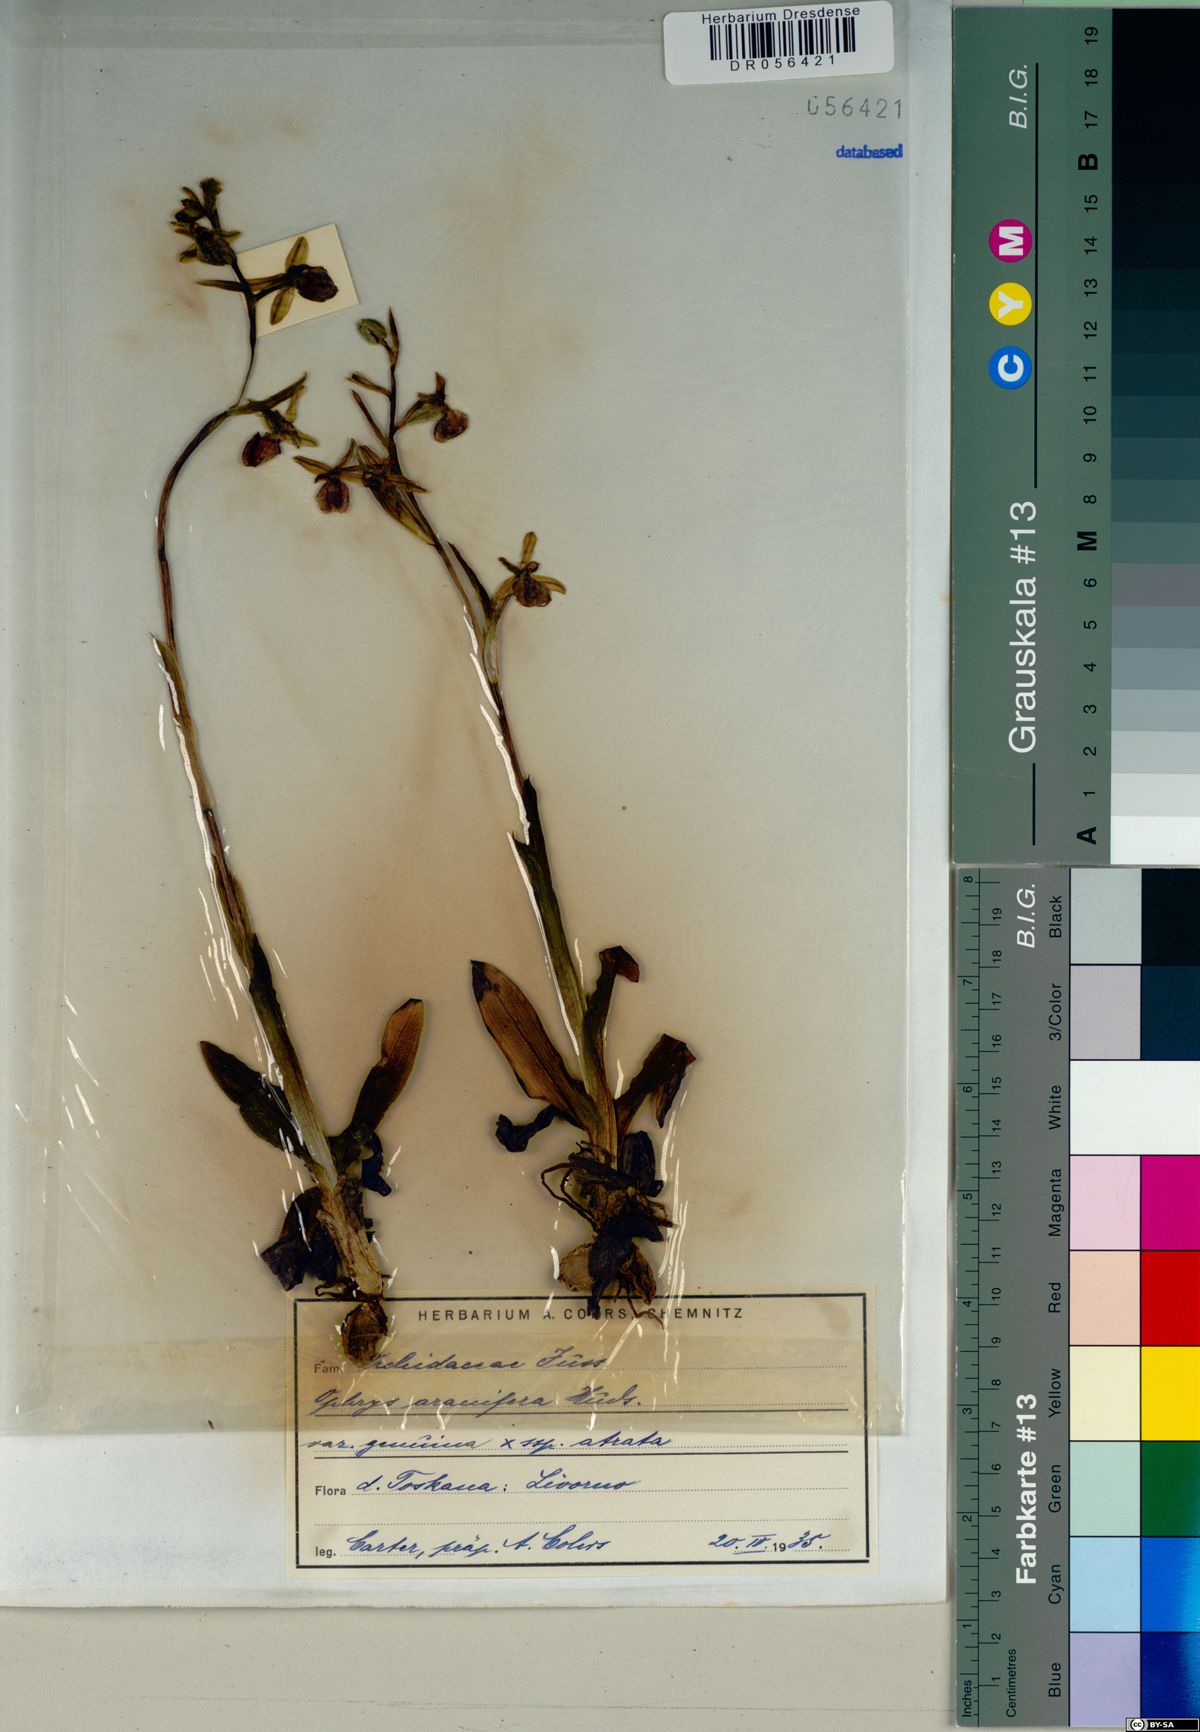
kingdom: Plantae
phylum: Tracheophyta
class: Liliopsida
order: Asparagales
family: Orchidaceae
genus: Ophrys
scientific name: Ophrys sphegodes
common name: Early spider-orchid
